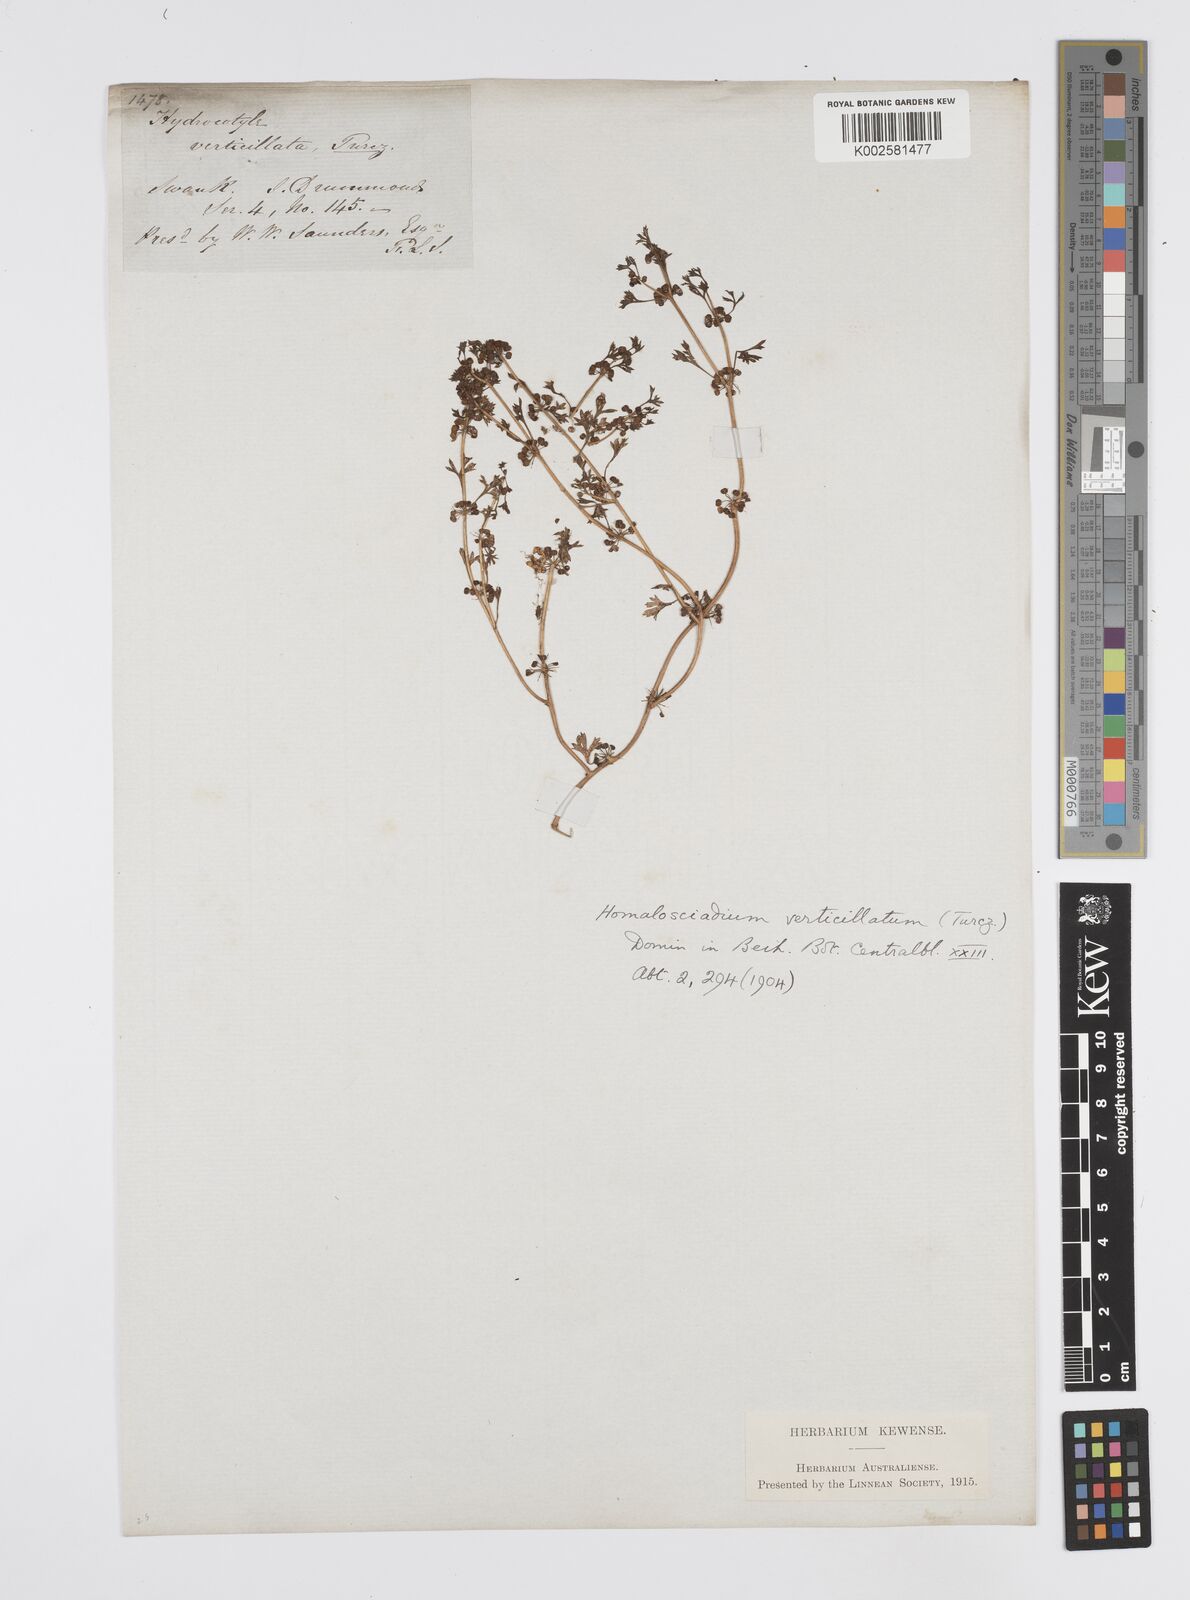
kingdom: Plantae
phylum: Tracheophyta
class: Magnoliopsida
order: Apiales
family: Apiaceae
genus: Homalosciadium
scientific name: Homalosciadium homalocarpum
